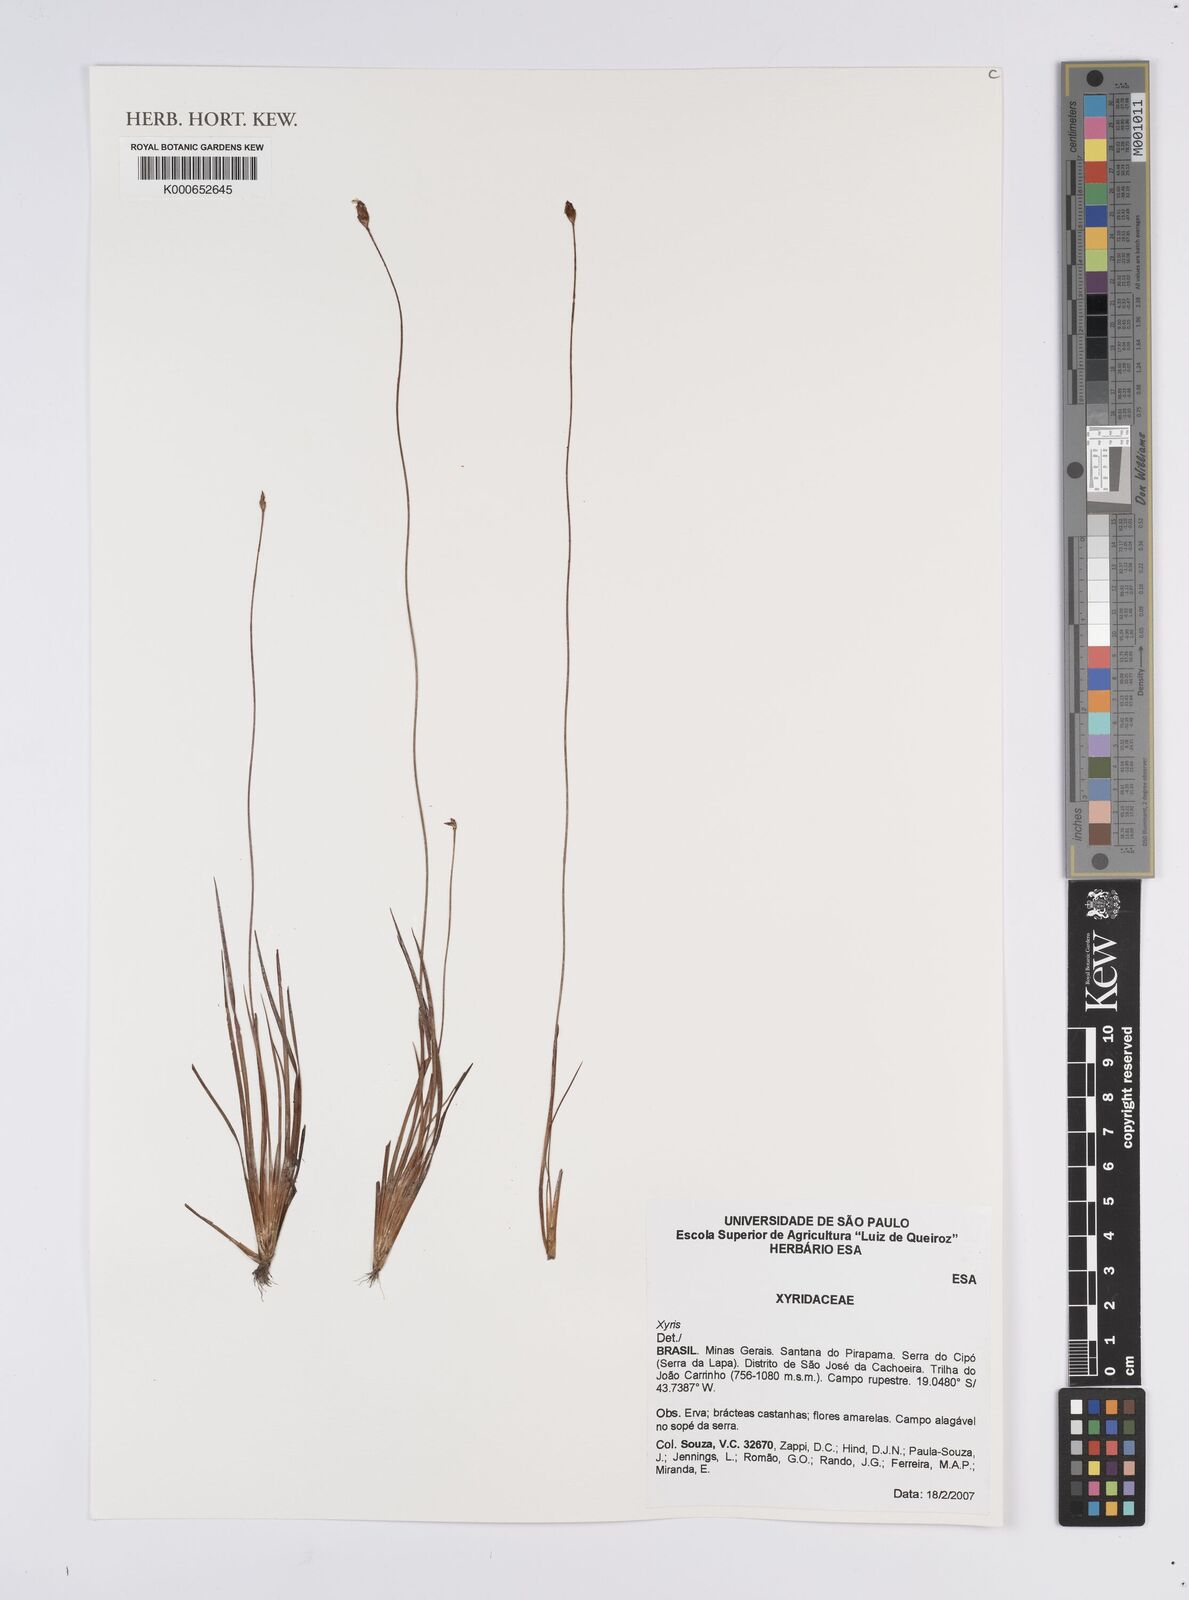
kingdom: Plantae
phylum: Tracheophyta
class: Liliopsida
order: Poales
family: Xyridaceae
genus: Xyris
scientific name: Xyris
